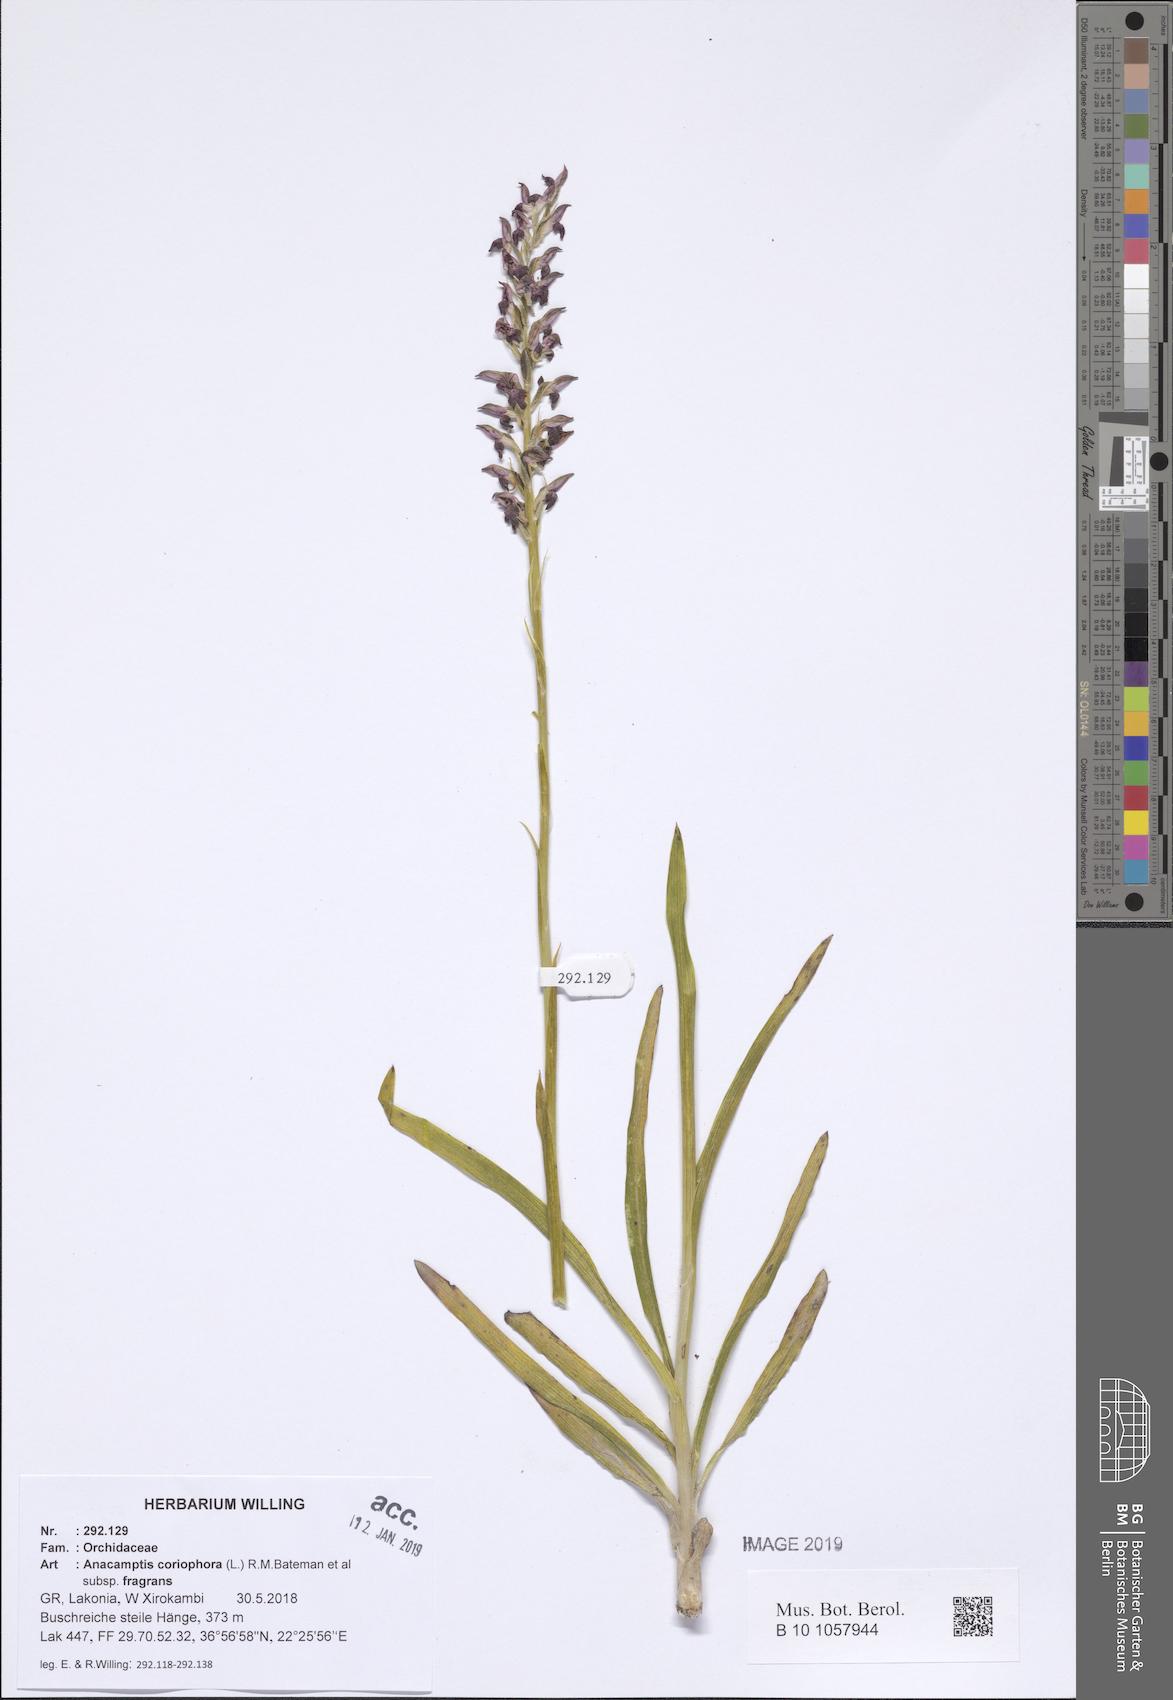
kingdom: Plantae
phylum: Tracheophyta
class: Liliopsida
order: Asparagales
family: Orchidaceae
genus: Anacamptis
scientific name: Anacamptis coriophora
